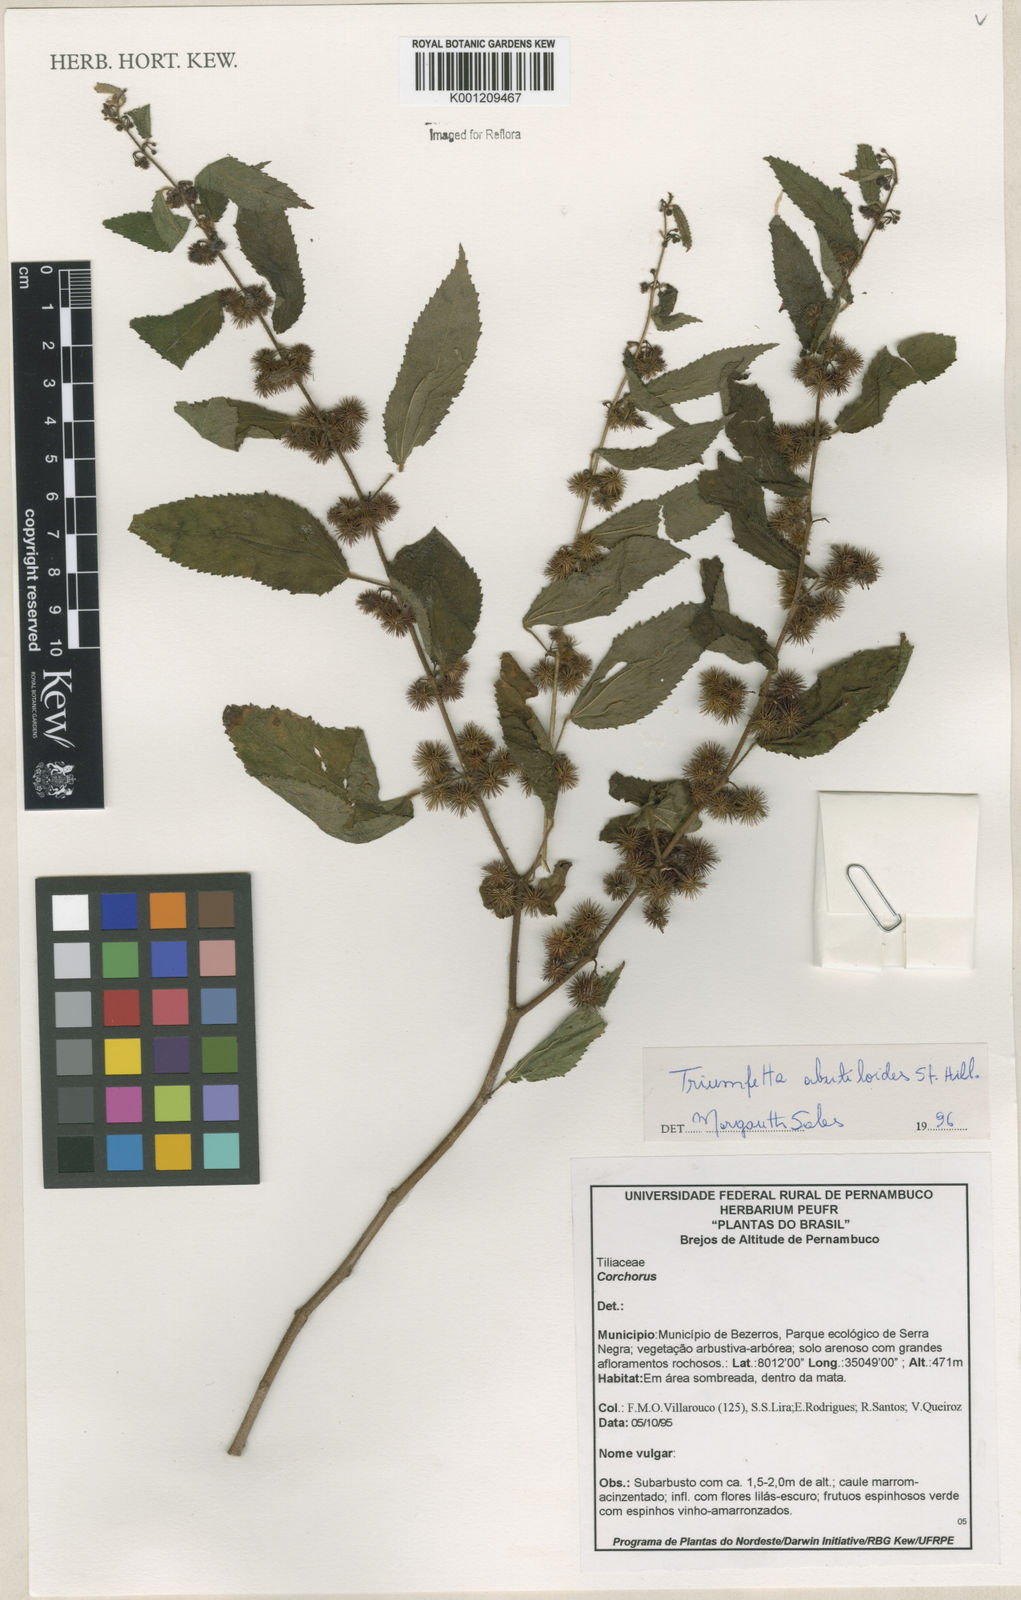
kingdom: Plantae
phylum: Tracheophyta
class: Magnoliopsida
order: Malvales
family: Malvaceae
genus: Triumfetta
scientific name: Triumfetta abutiloides
